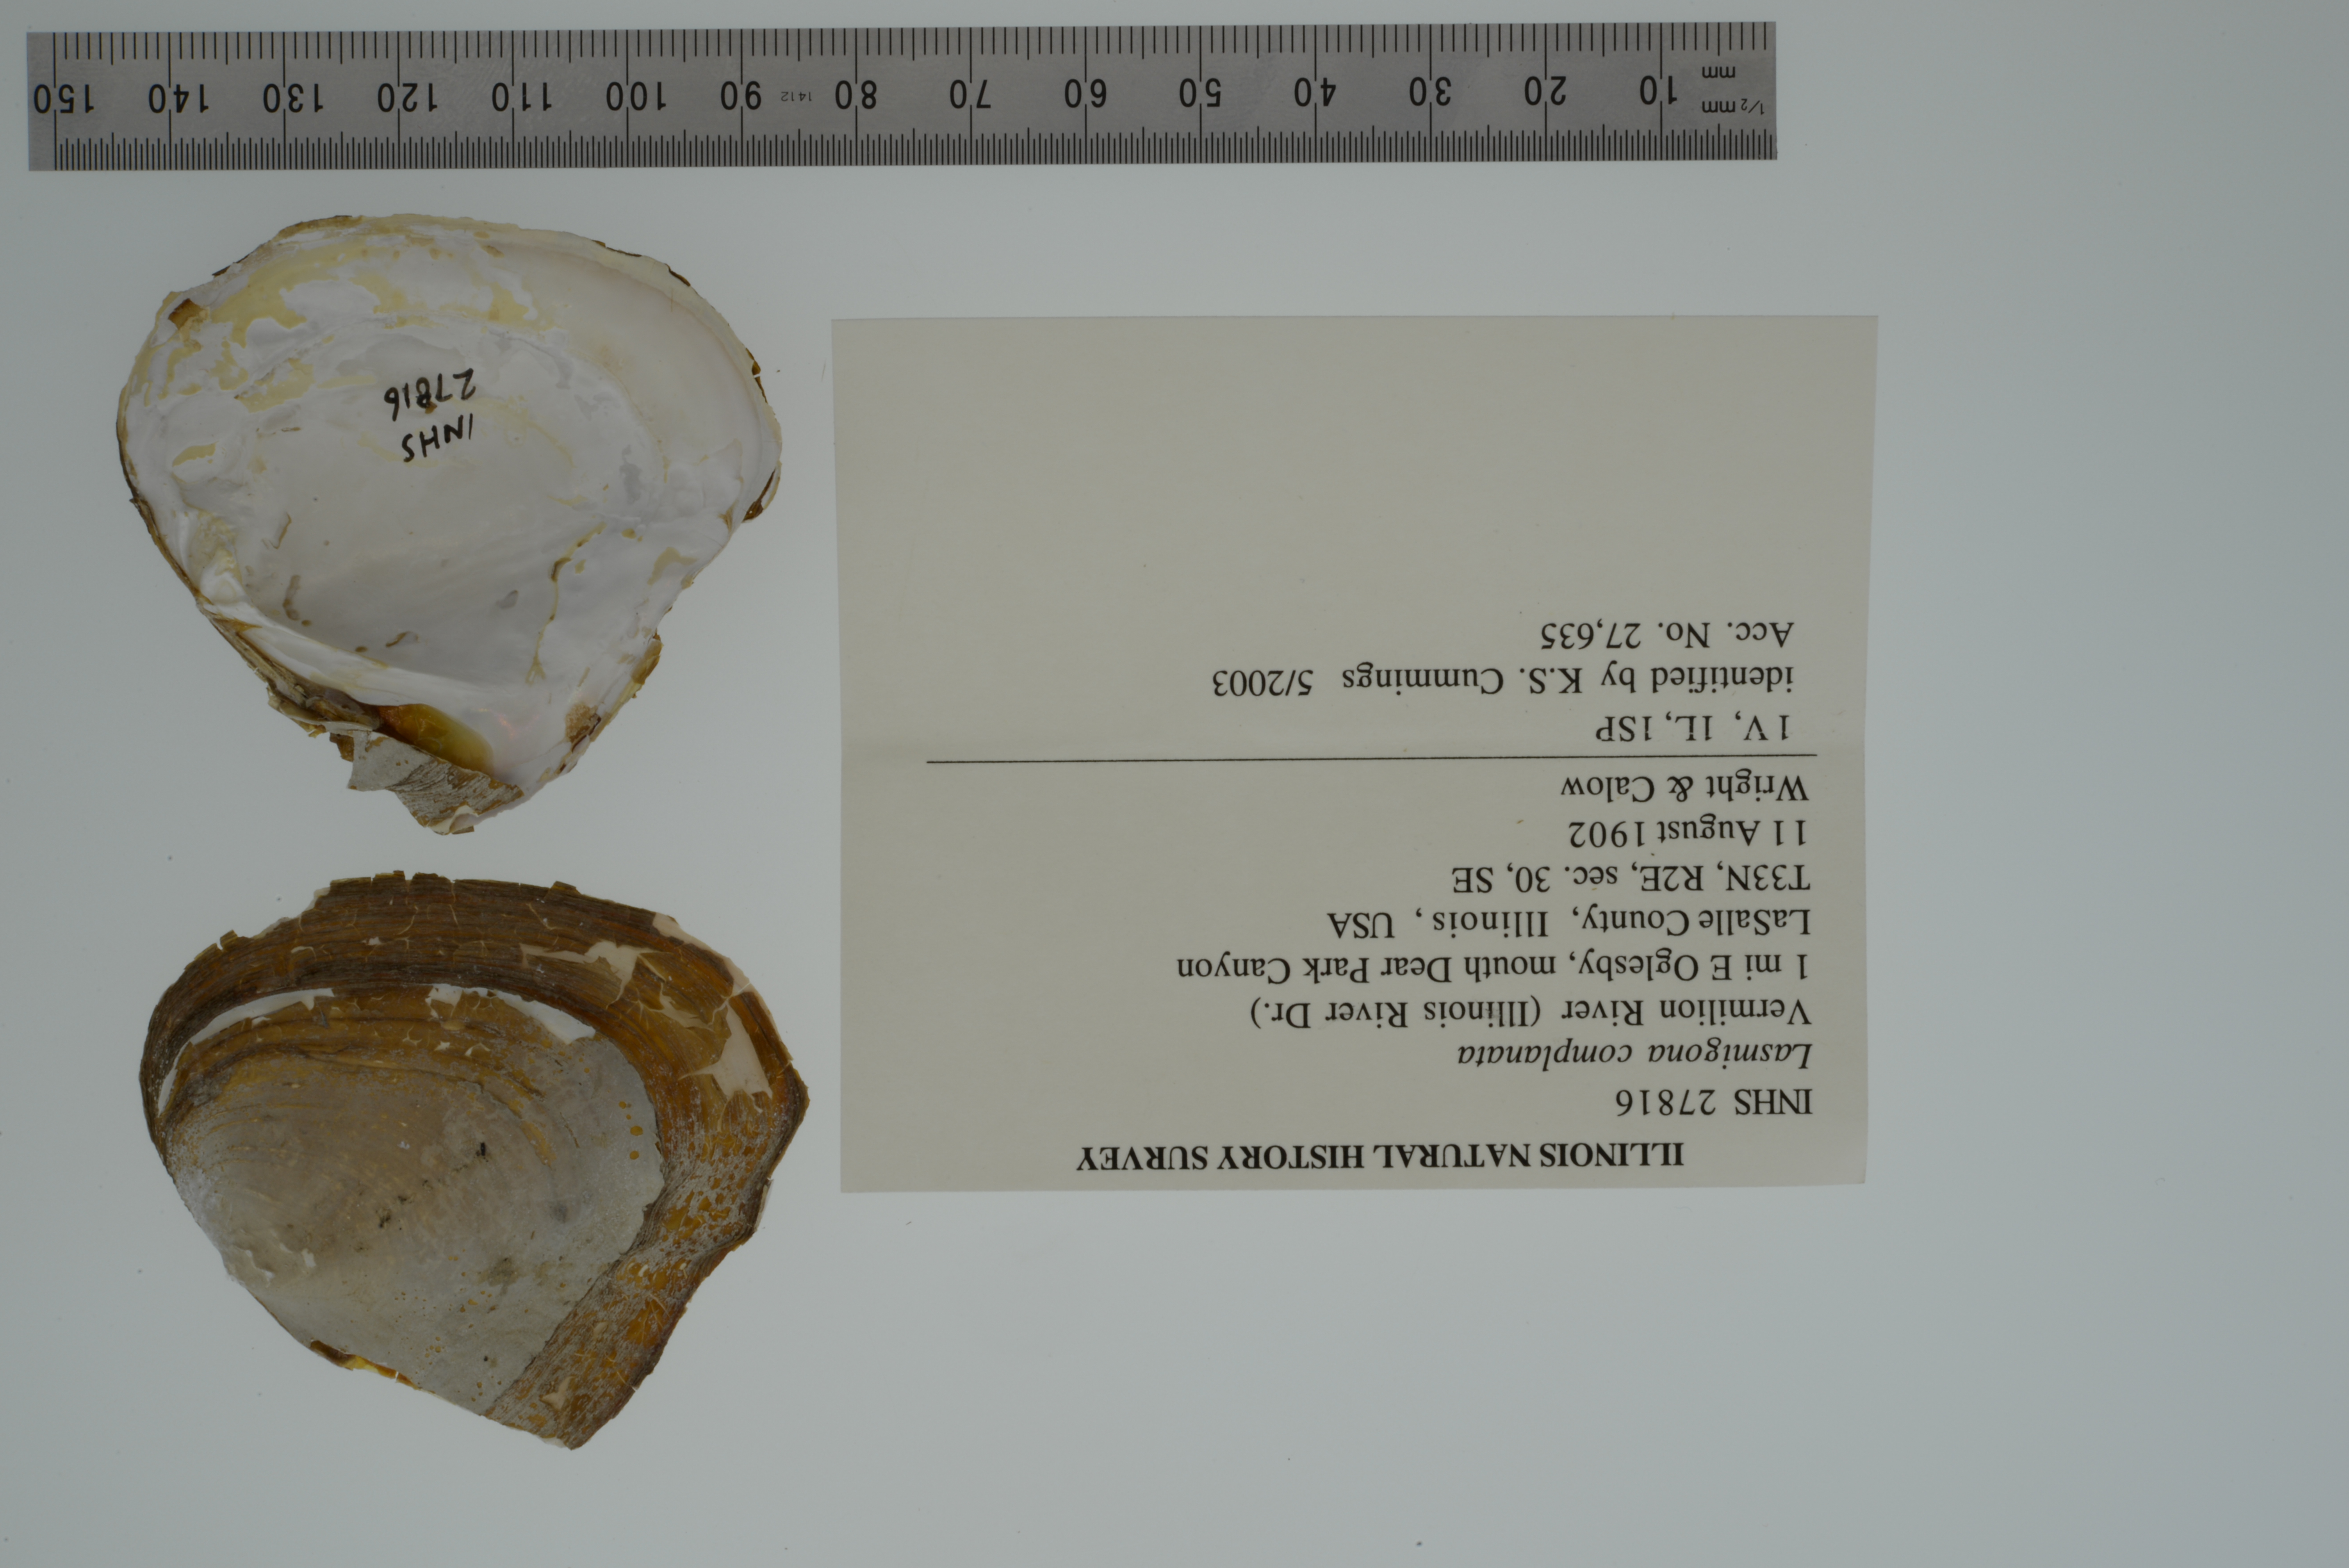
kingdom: Animalia
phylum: Mollusca
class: Bivalvia
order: Unionida
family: Unionidae
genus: Lasmigona
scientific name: Lasmigona complanata
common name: White heelsplitter
